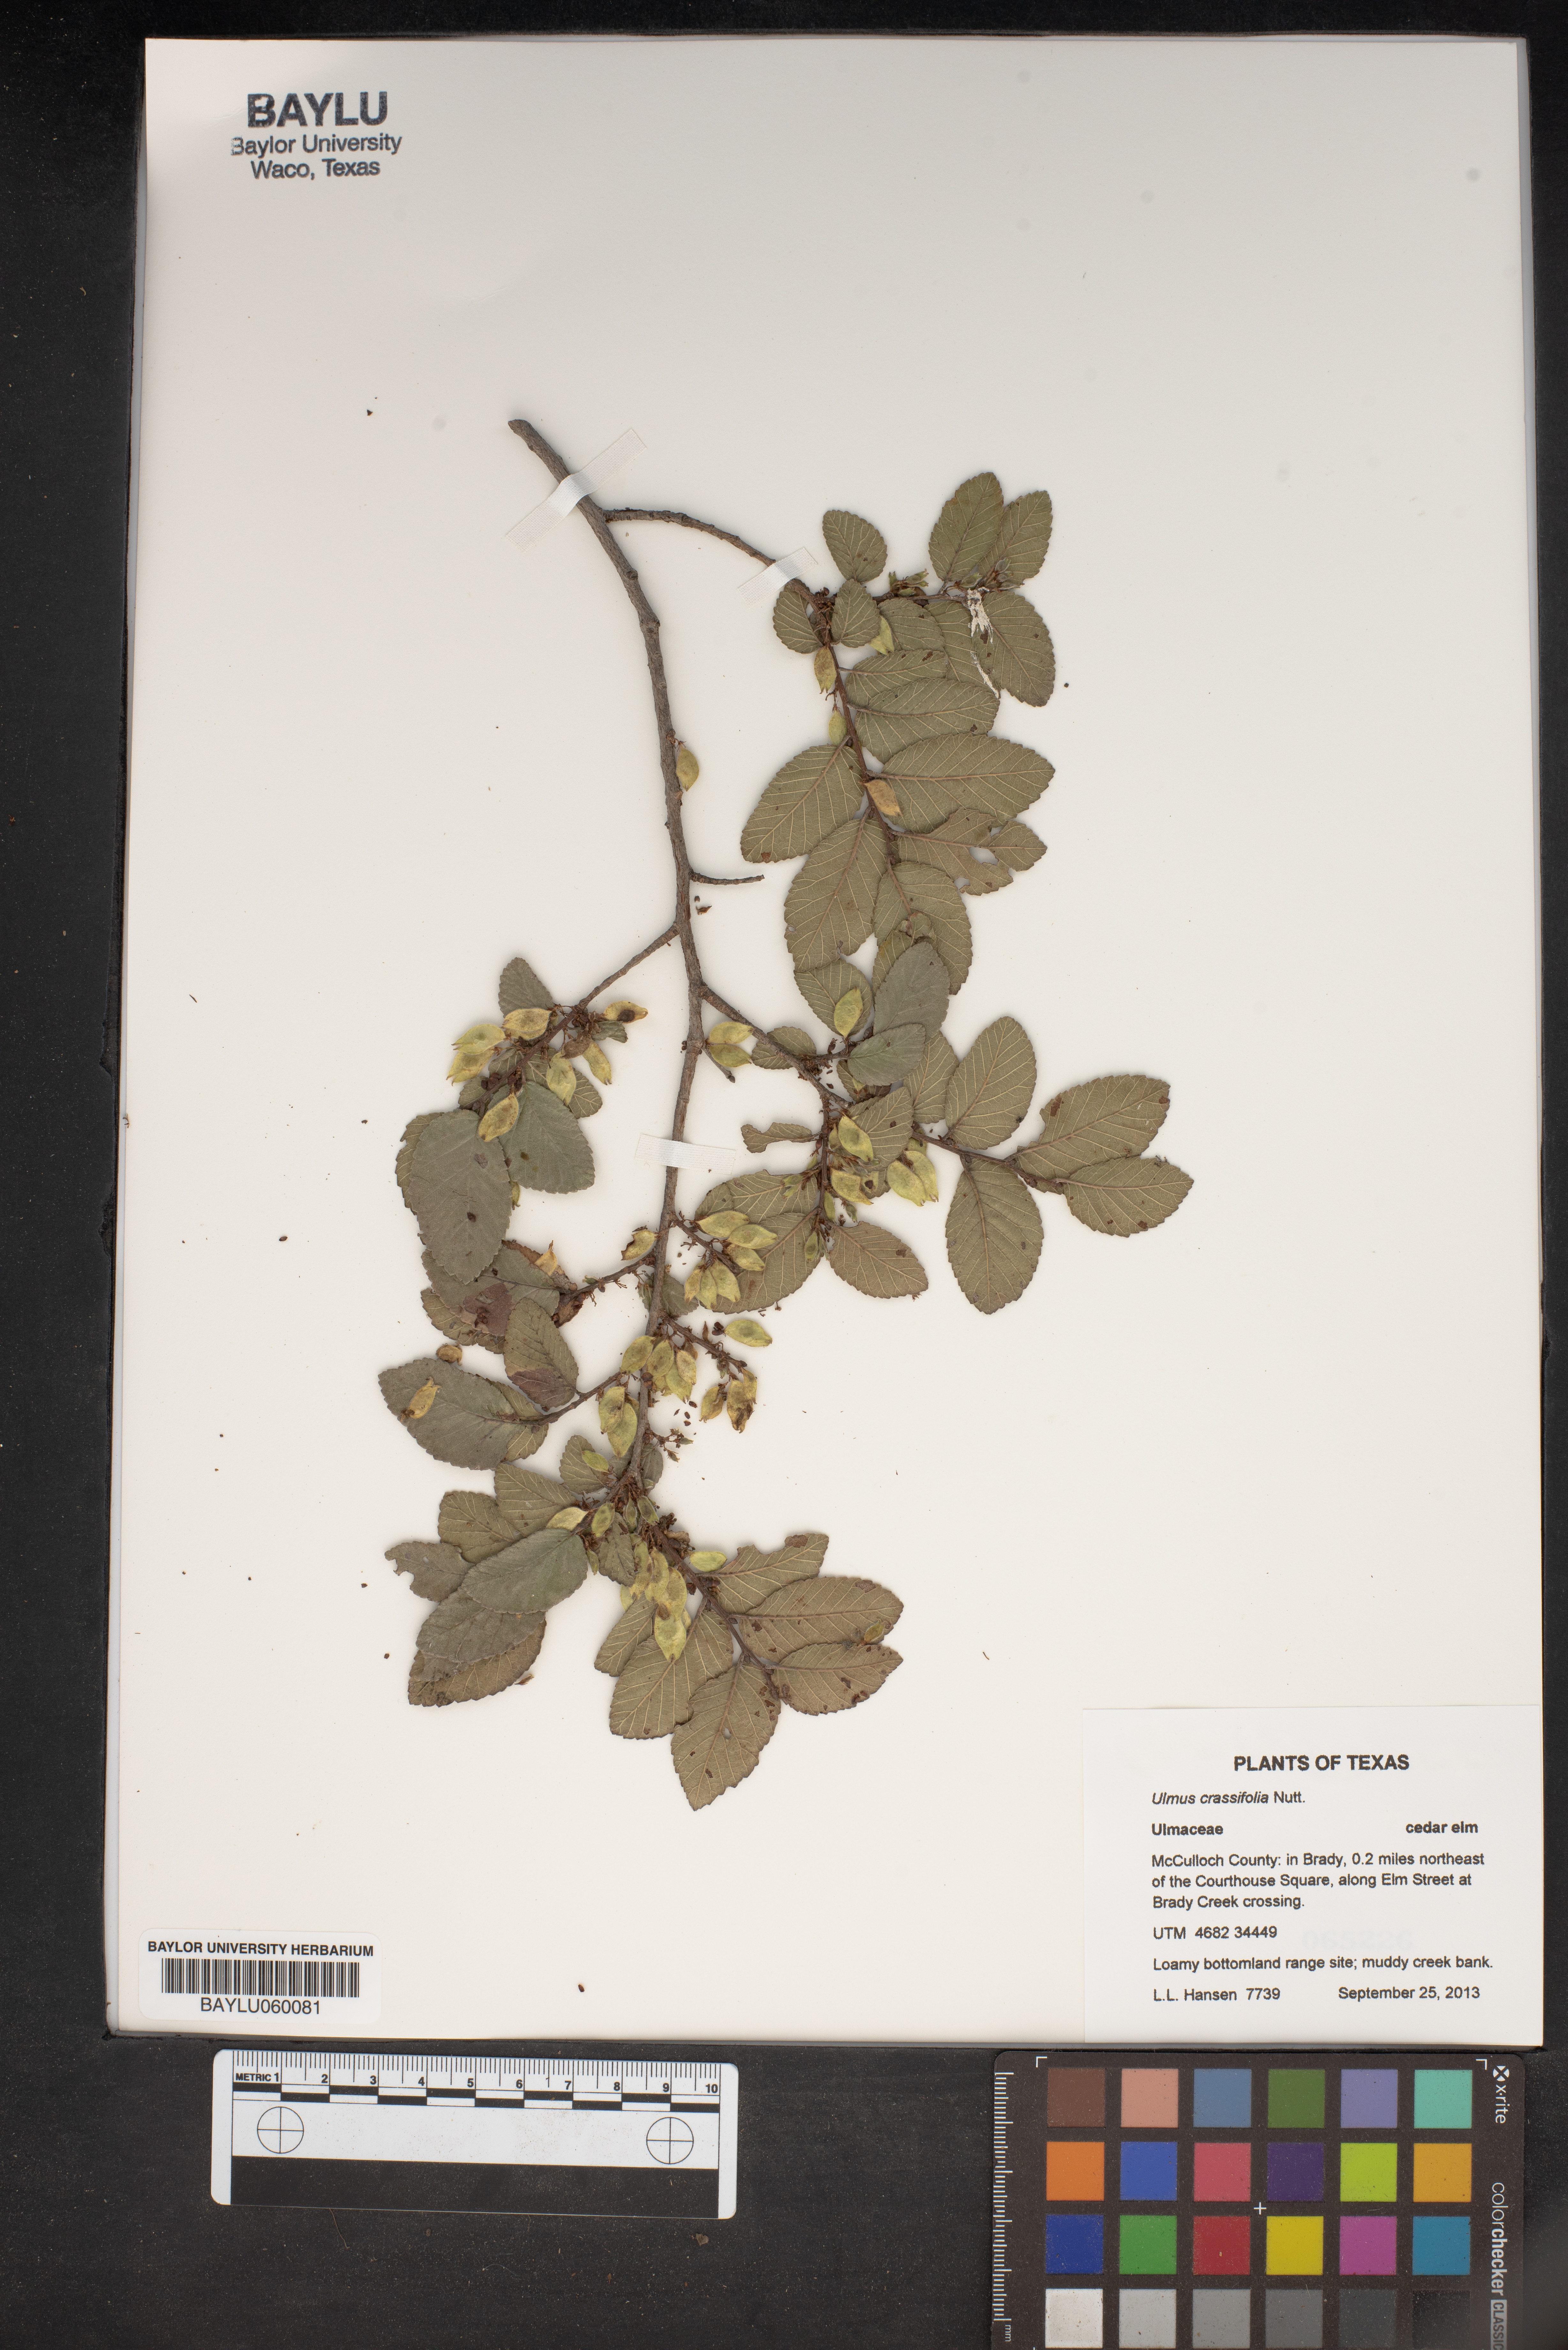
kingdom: Plantae
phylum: Tracheophyta
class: Magnoliopsida
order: Rosales
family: Ulmaceae
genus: Ulmus
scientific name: Ulmus crassifolia
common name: Basket elm
